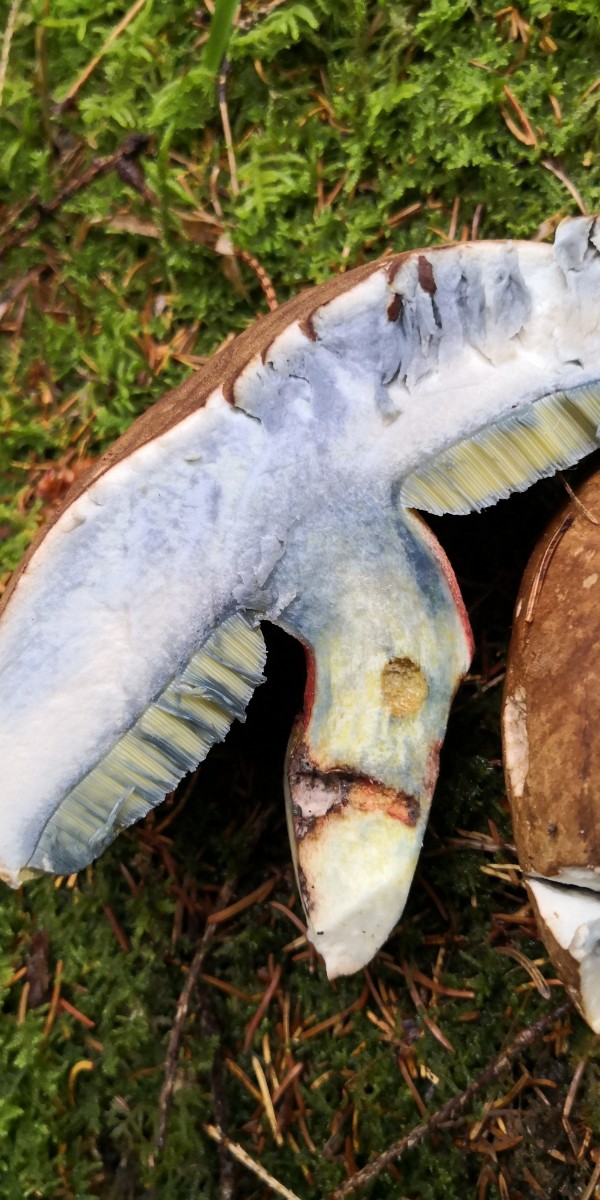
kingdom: Fungi
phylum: Basidiomycota
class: Agaricomycetes
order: Boletales
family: Boletaceae
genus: Caloboletus
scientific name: Caloboletus calopus
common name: skønfodet rørhat
